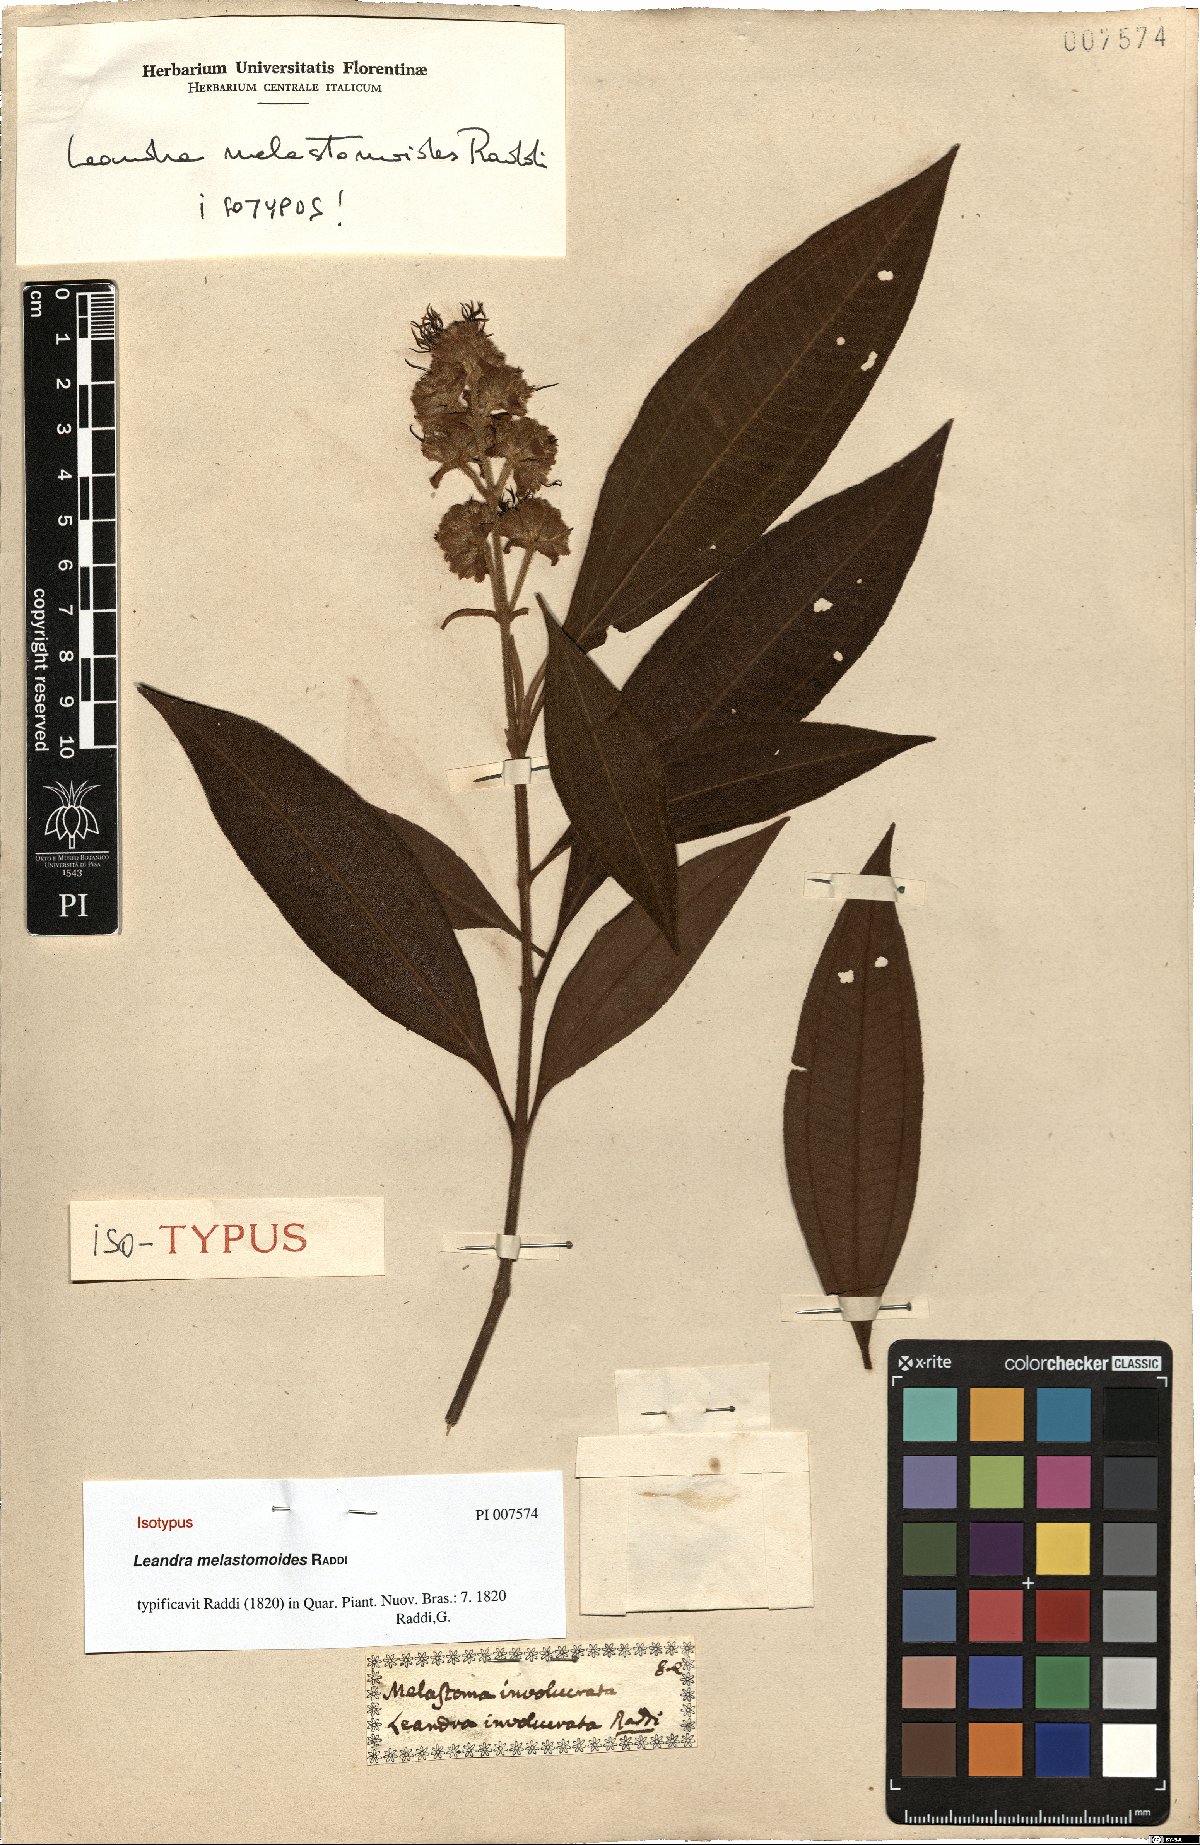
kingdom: Plantae
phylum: Tracheophyta
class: Magnoliopsida
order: Myrtales
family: Melastomataceae
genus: Miconia
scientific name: Miconia melastomoides
